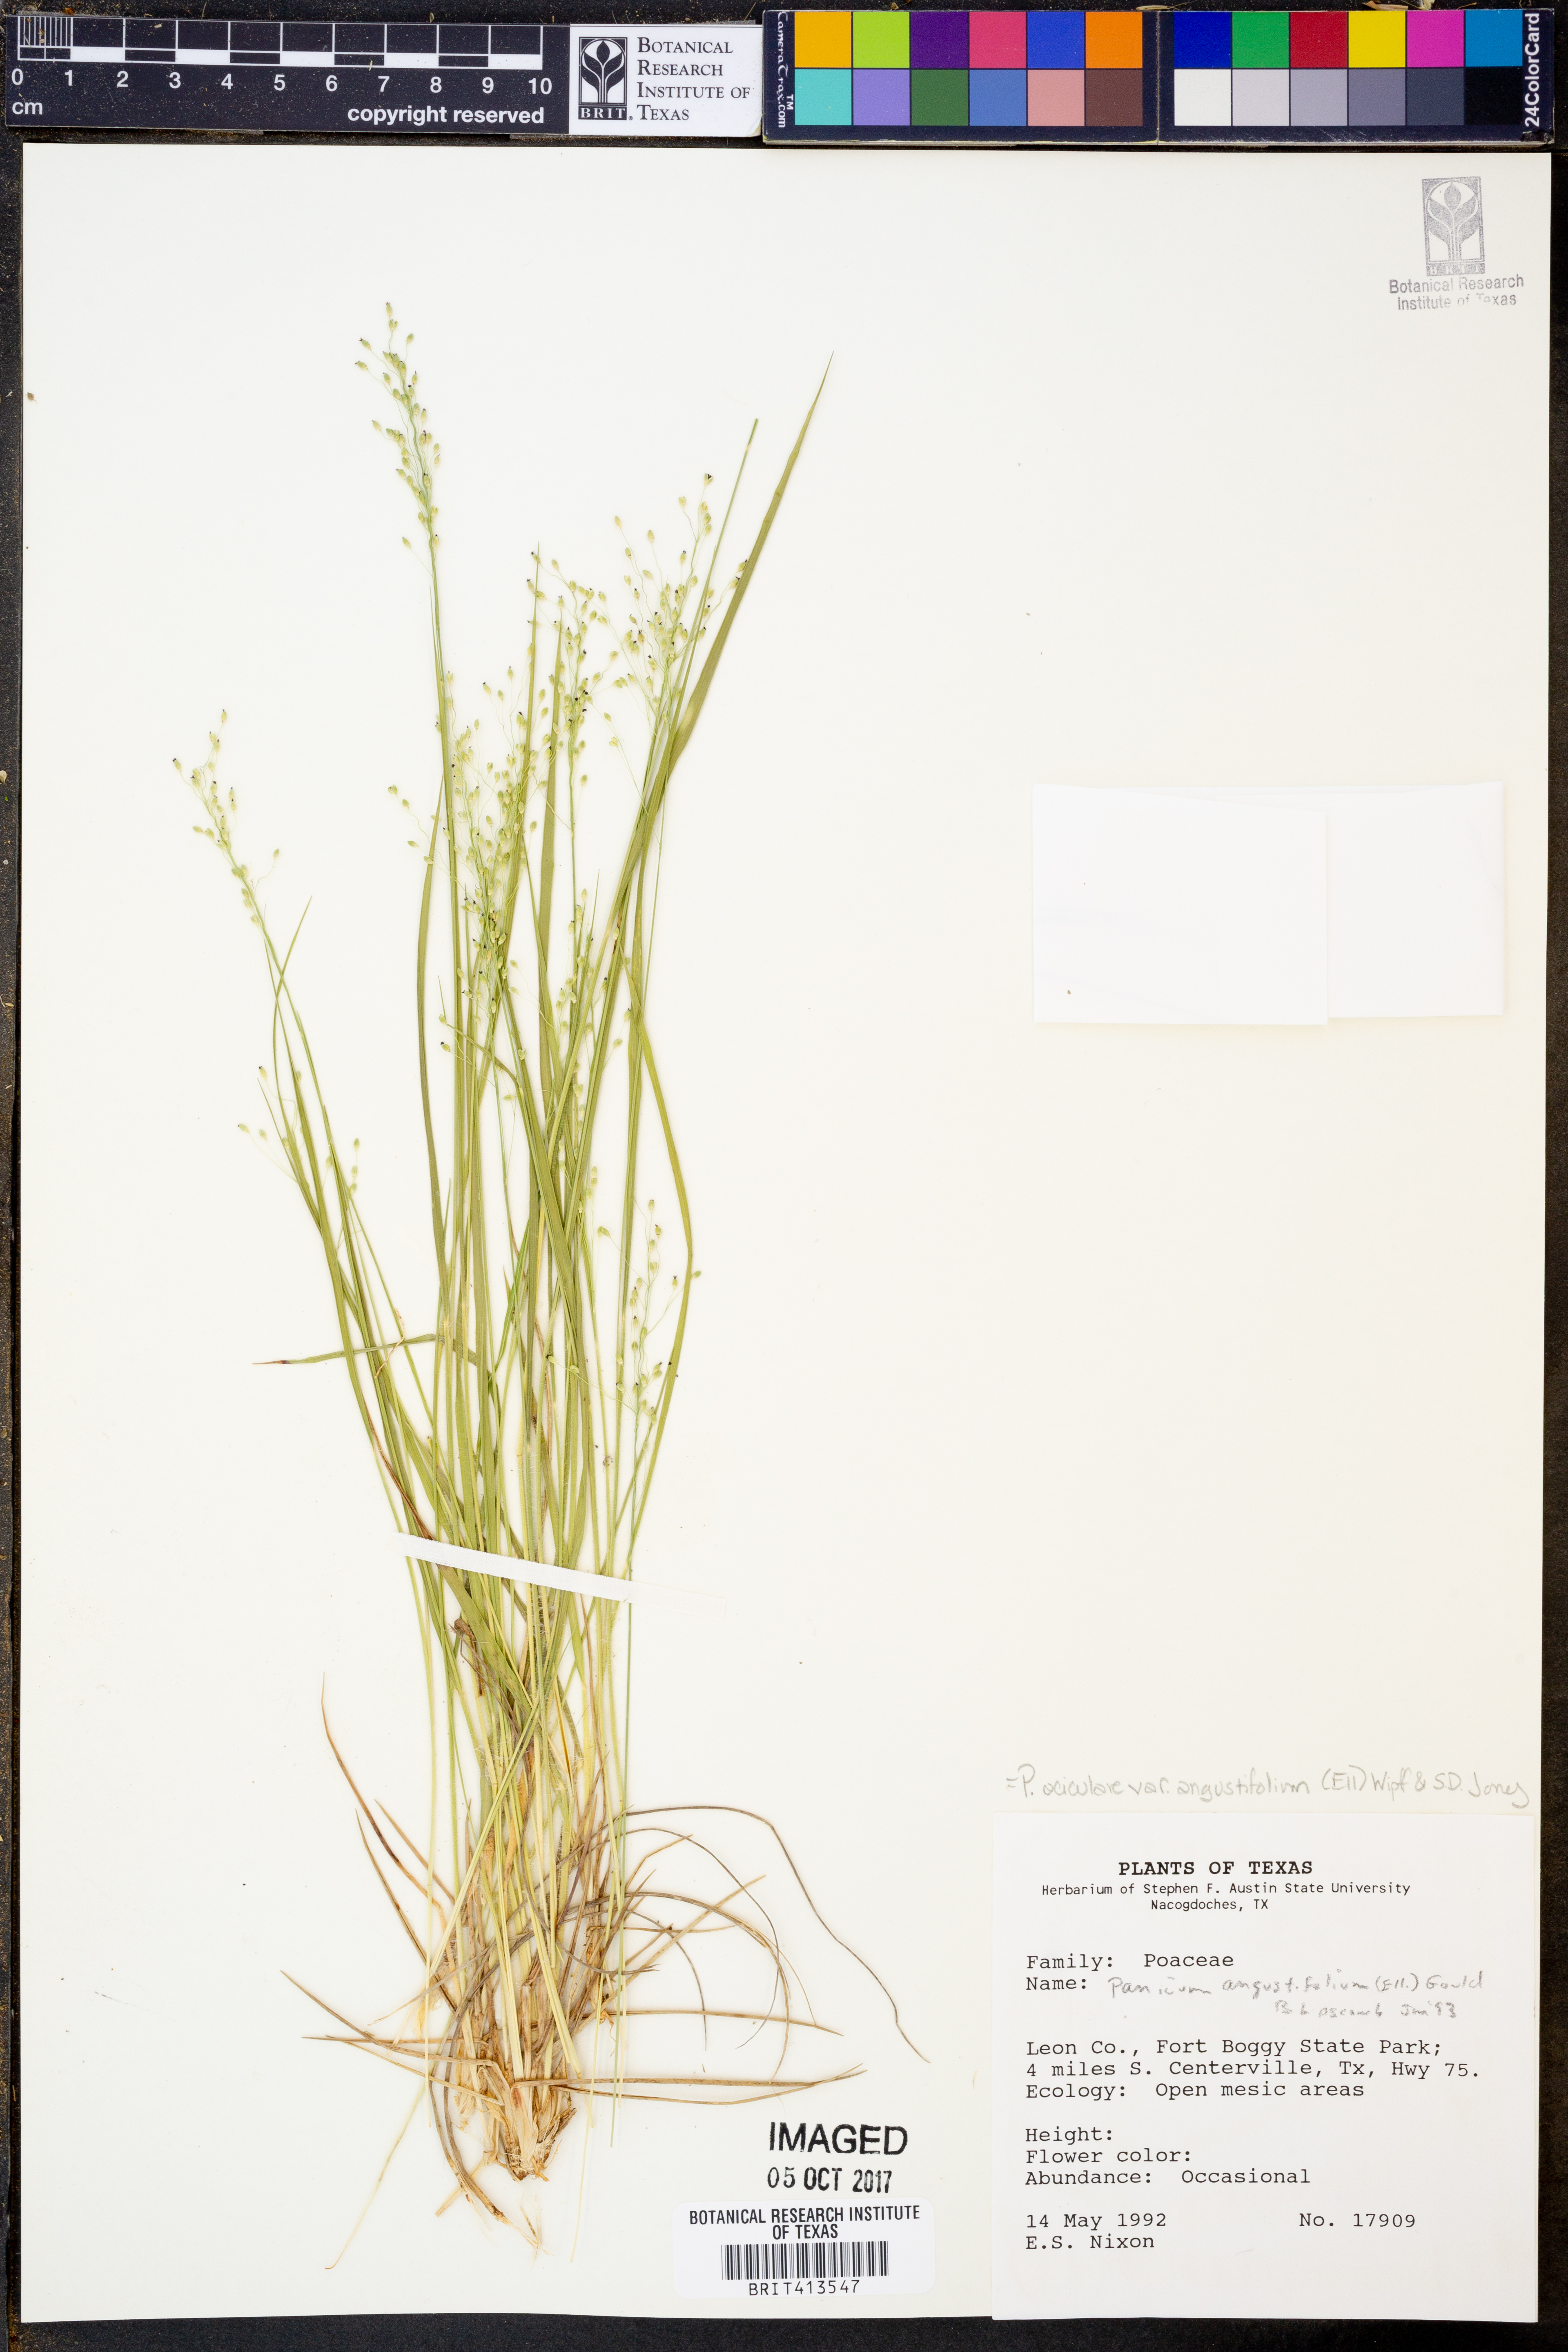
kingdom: Plantae
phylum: Tracheophyta
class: Liliopsida
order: Poales
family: Poaceae
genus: Dichanthelium
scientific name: Dichanthelium angustifolium
